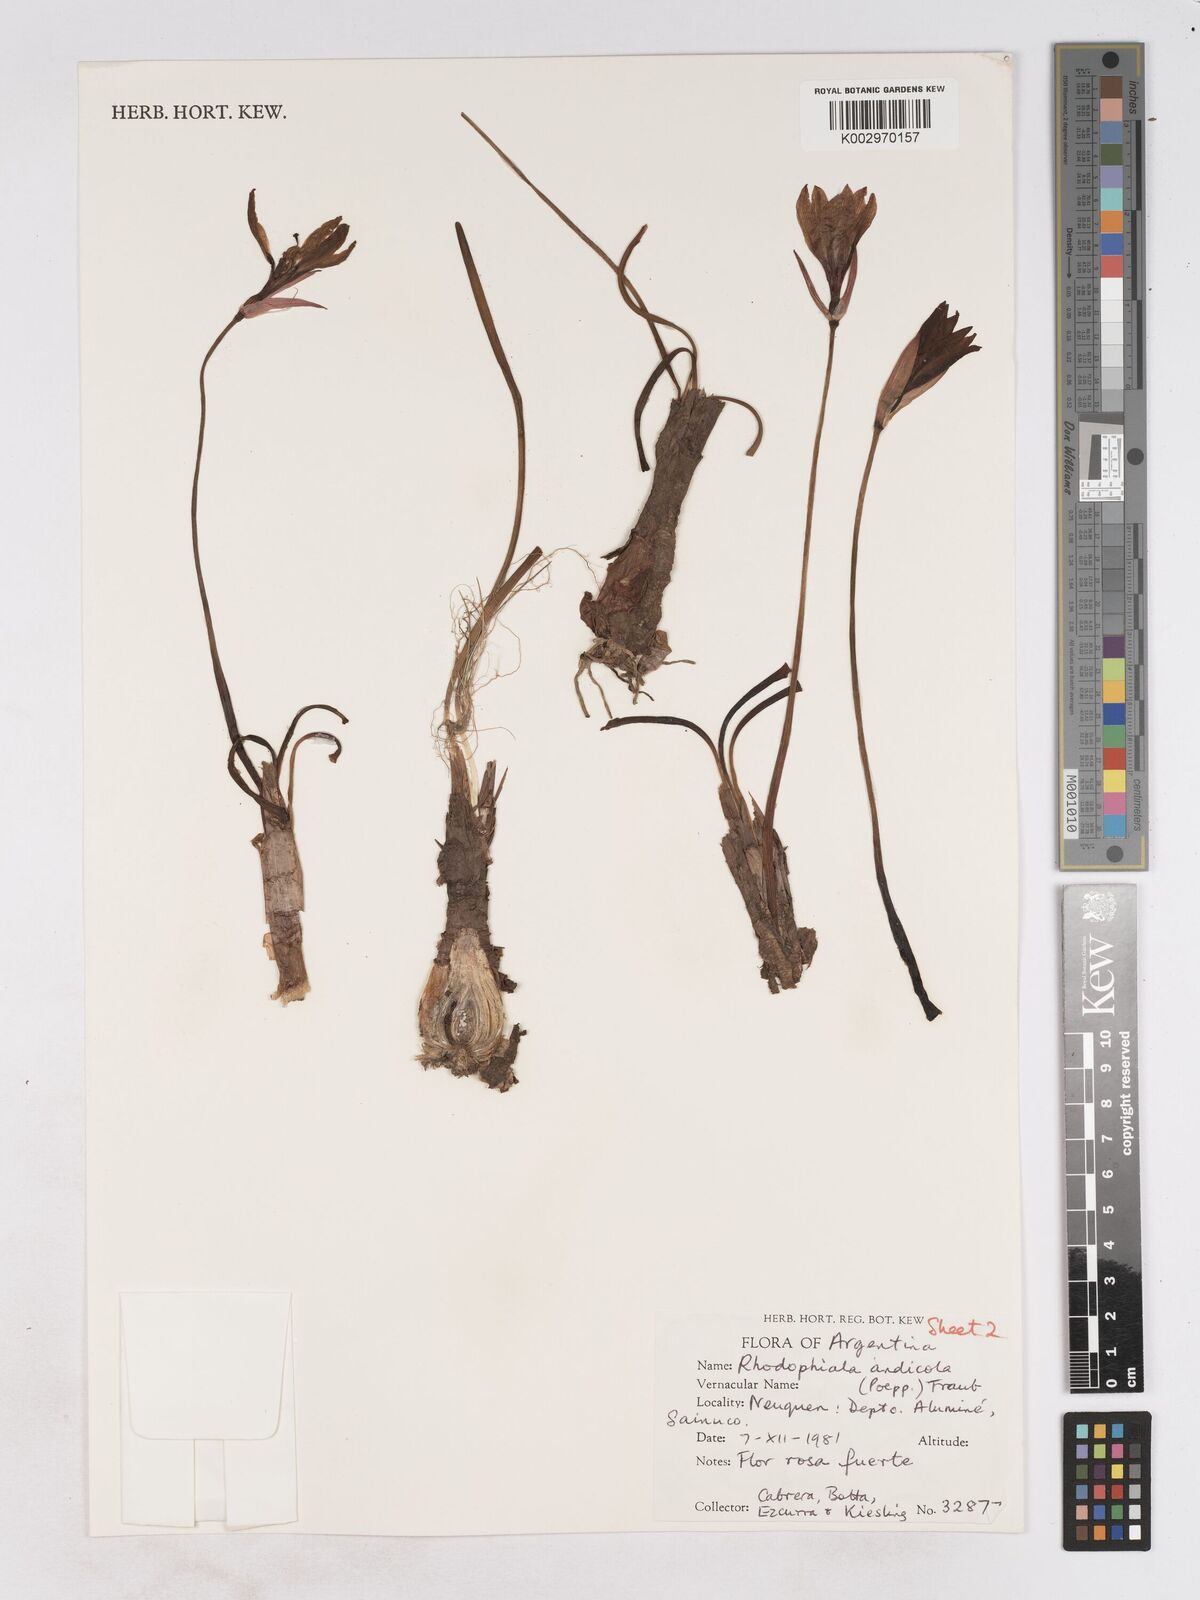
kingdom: Plantae
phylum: Tracheophyta
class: Liliopsida
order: Asparagales
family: Amaryllidaceae
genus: Rhodolirium
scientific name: Rhodolirium andicola
